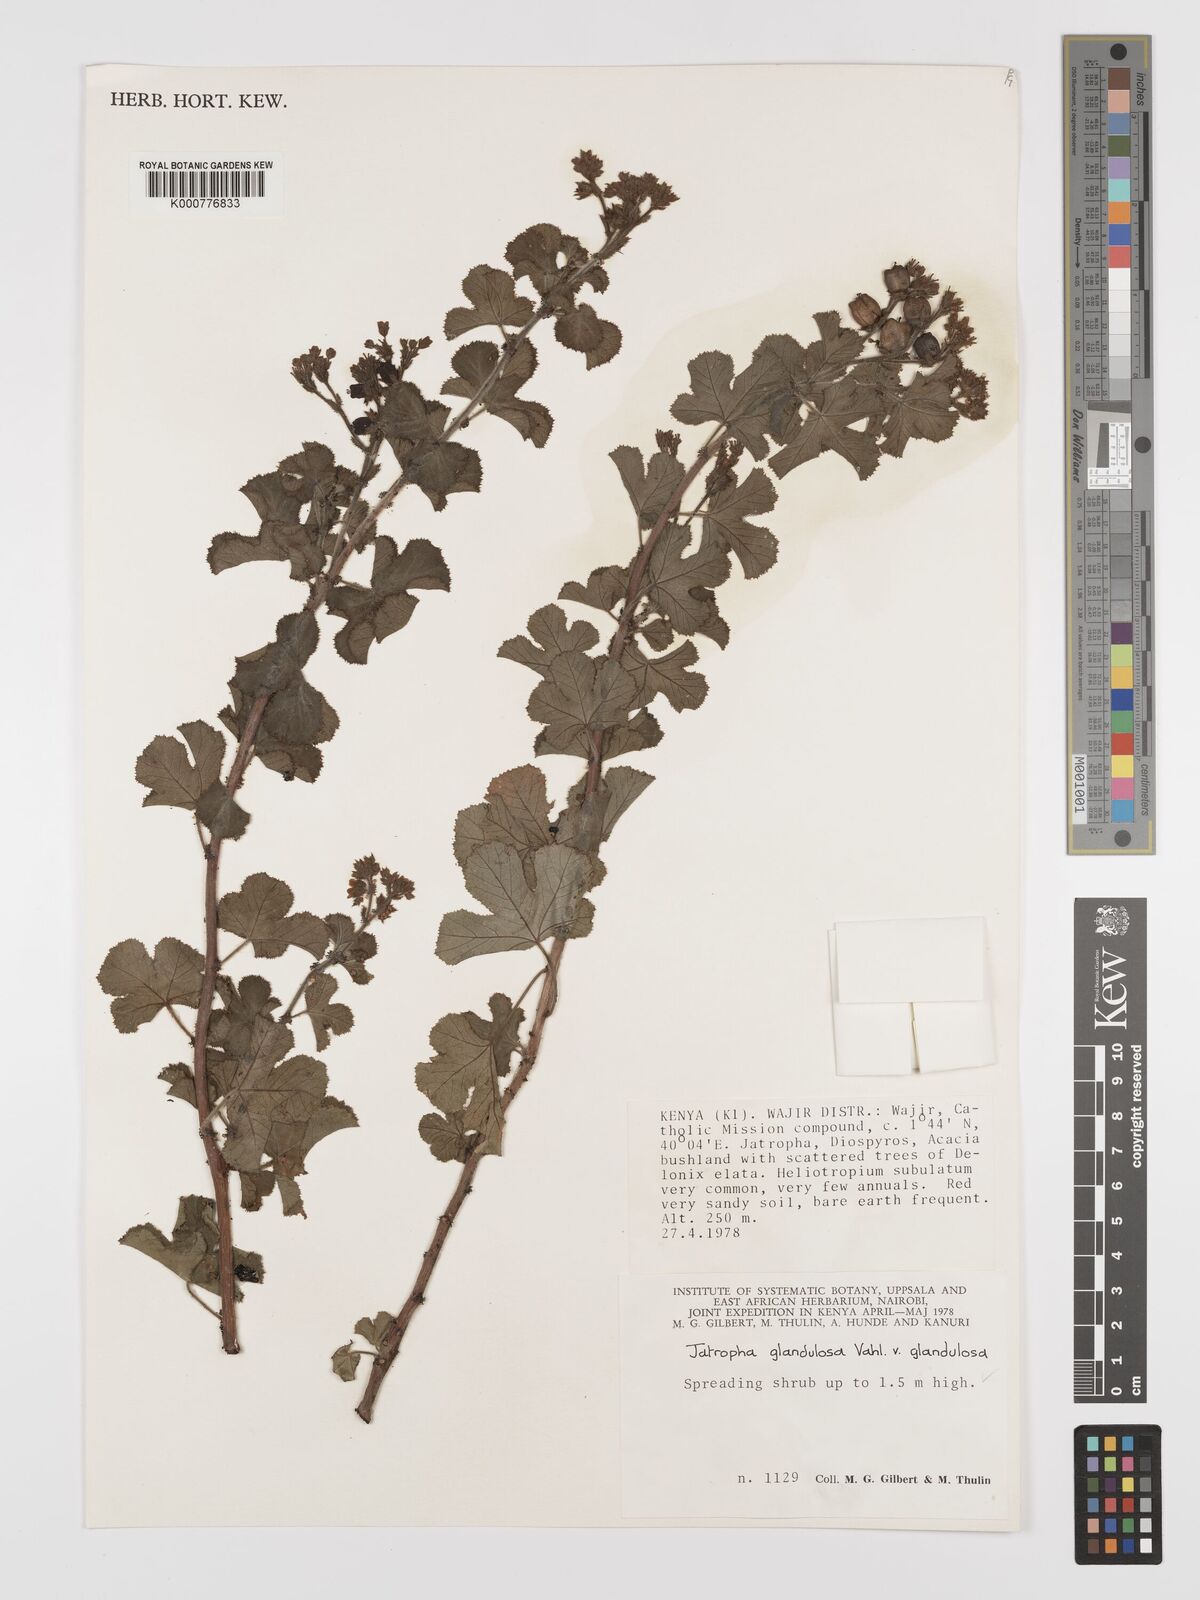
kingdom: Plantae
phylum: Tracheophyta
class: Magnoliopsida
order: Malpighiales
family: Euphorbiaceae
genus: Jatropha
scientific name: Jatropha pelargoniifolia
